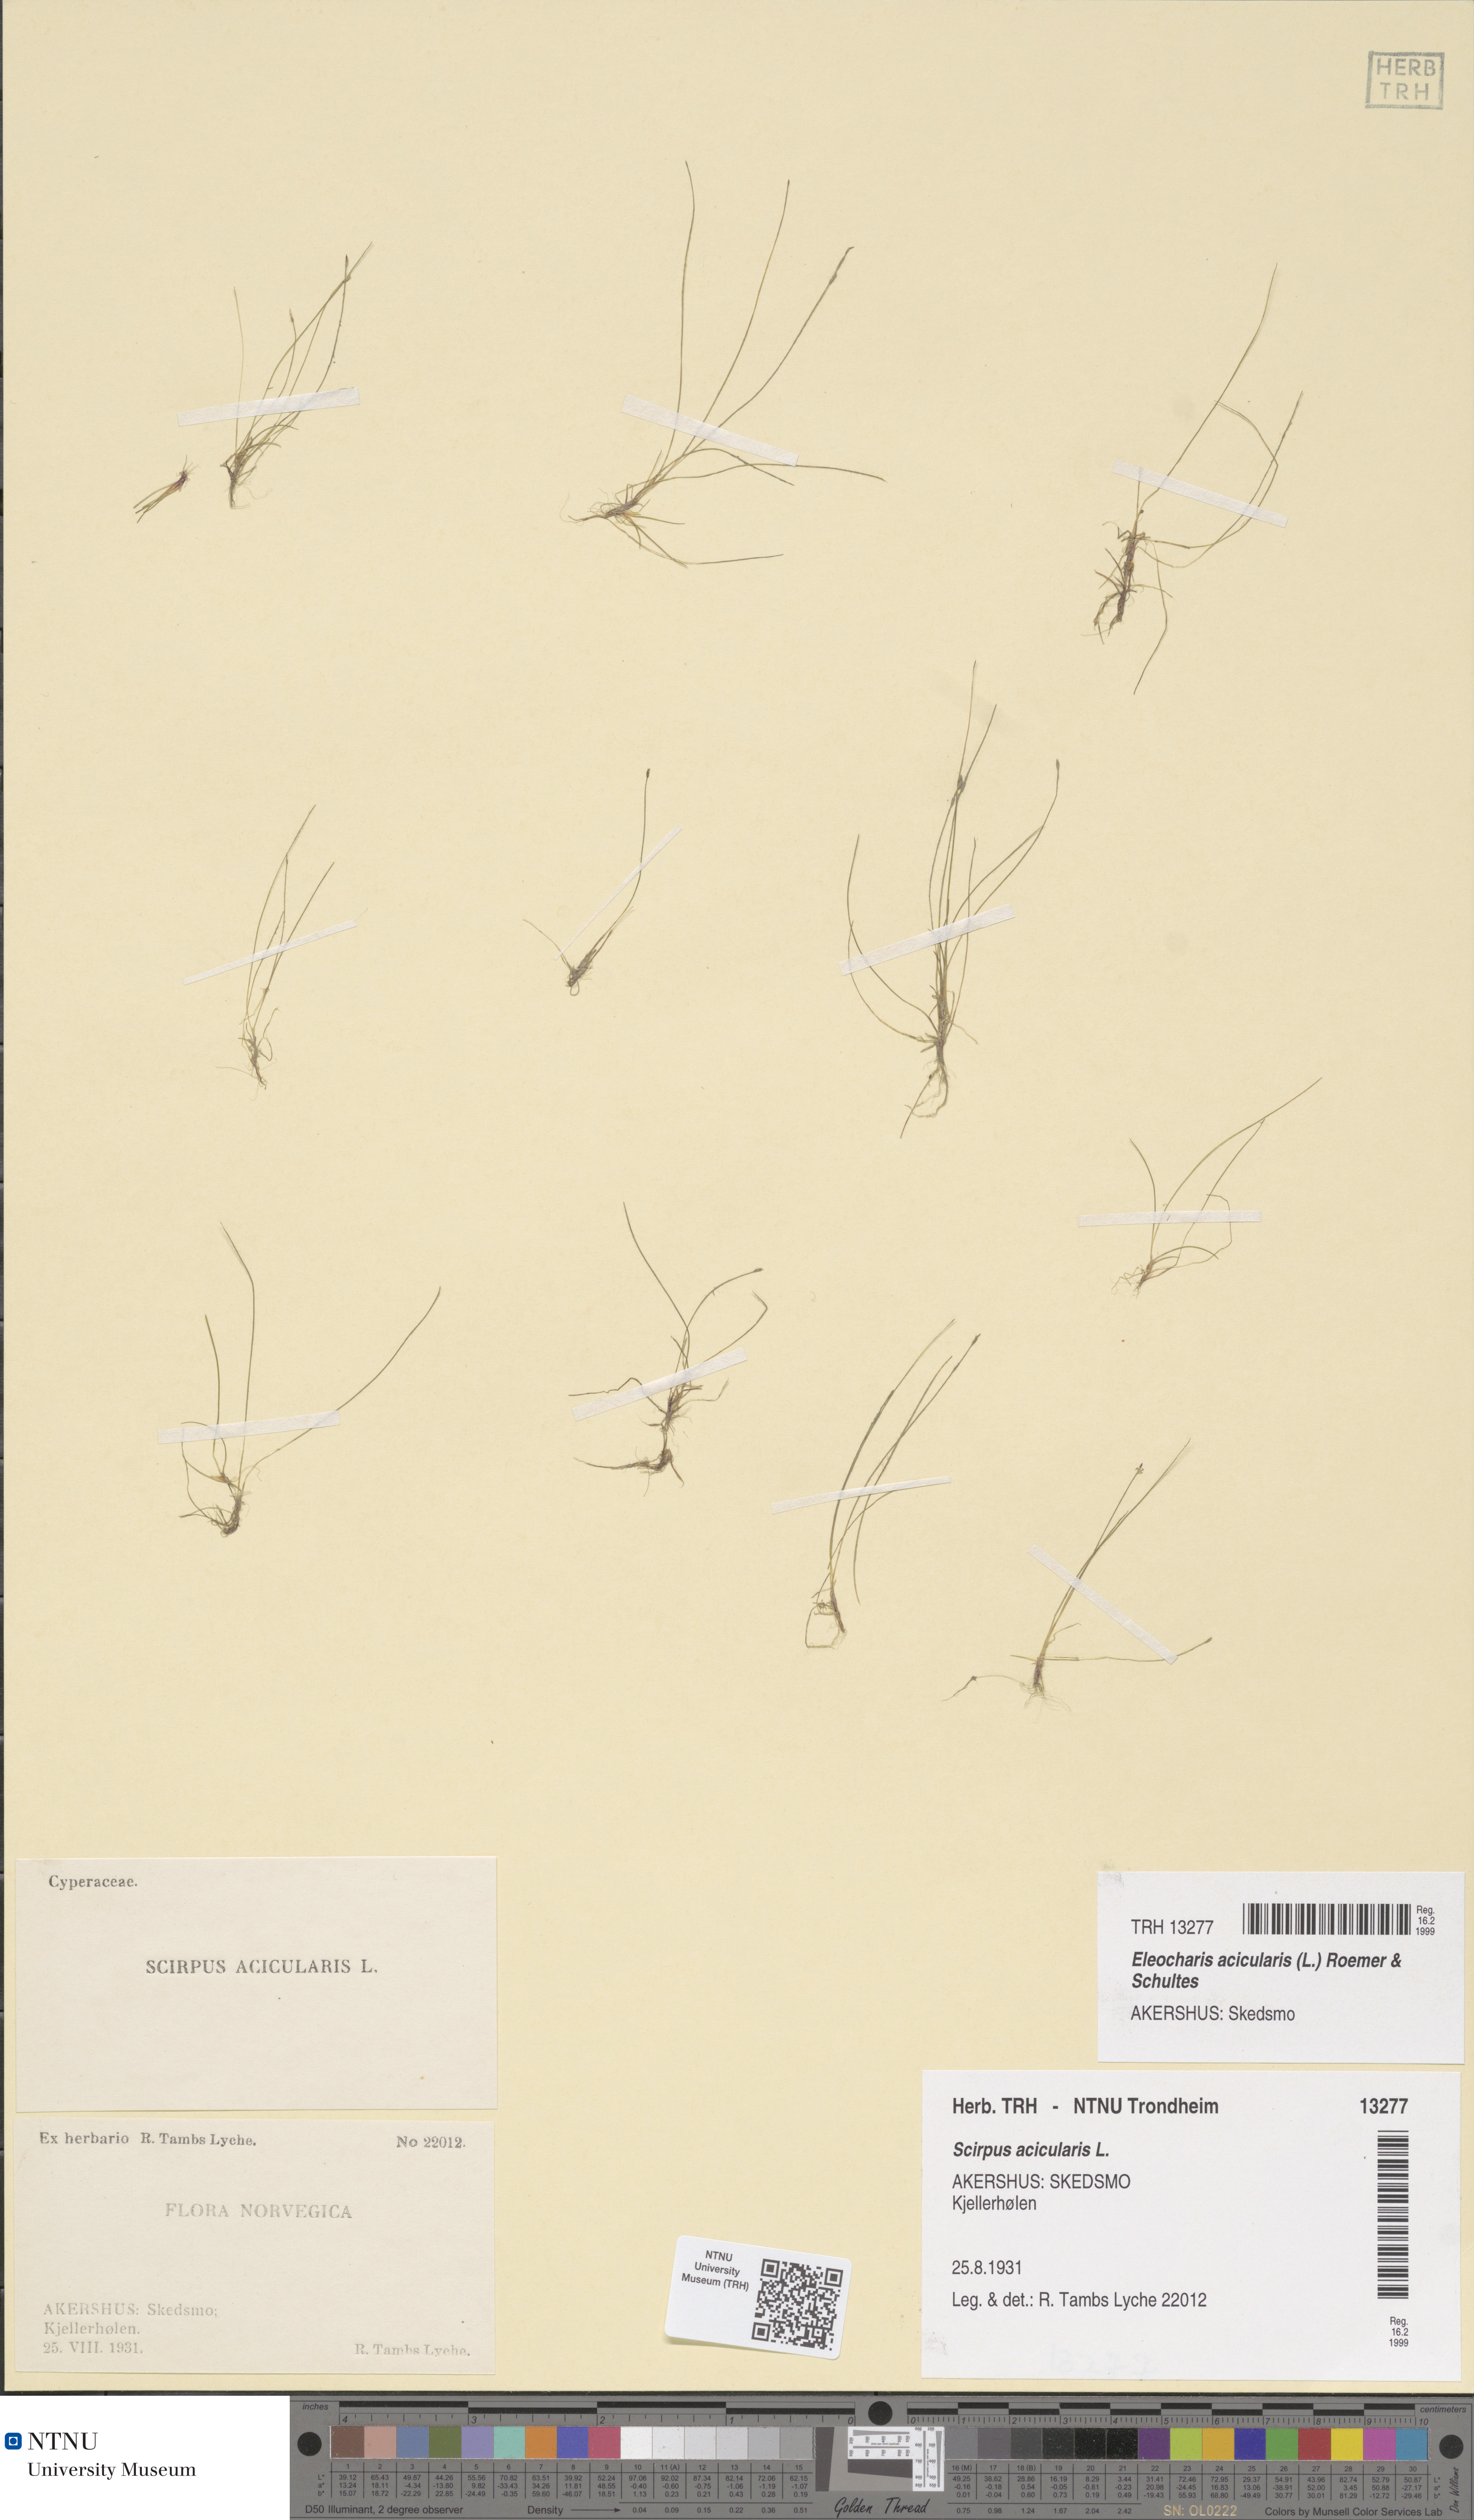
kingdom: Plantae
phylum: Tracheophyta
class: Liliopsida
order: Poales
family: Cyperaceae
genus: Eleocharis
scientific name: Eleocharis acicularis
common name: Needle spike-rush
